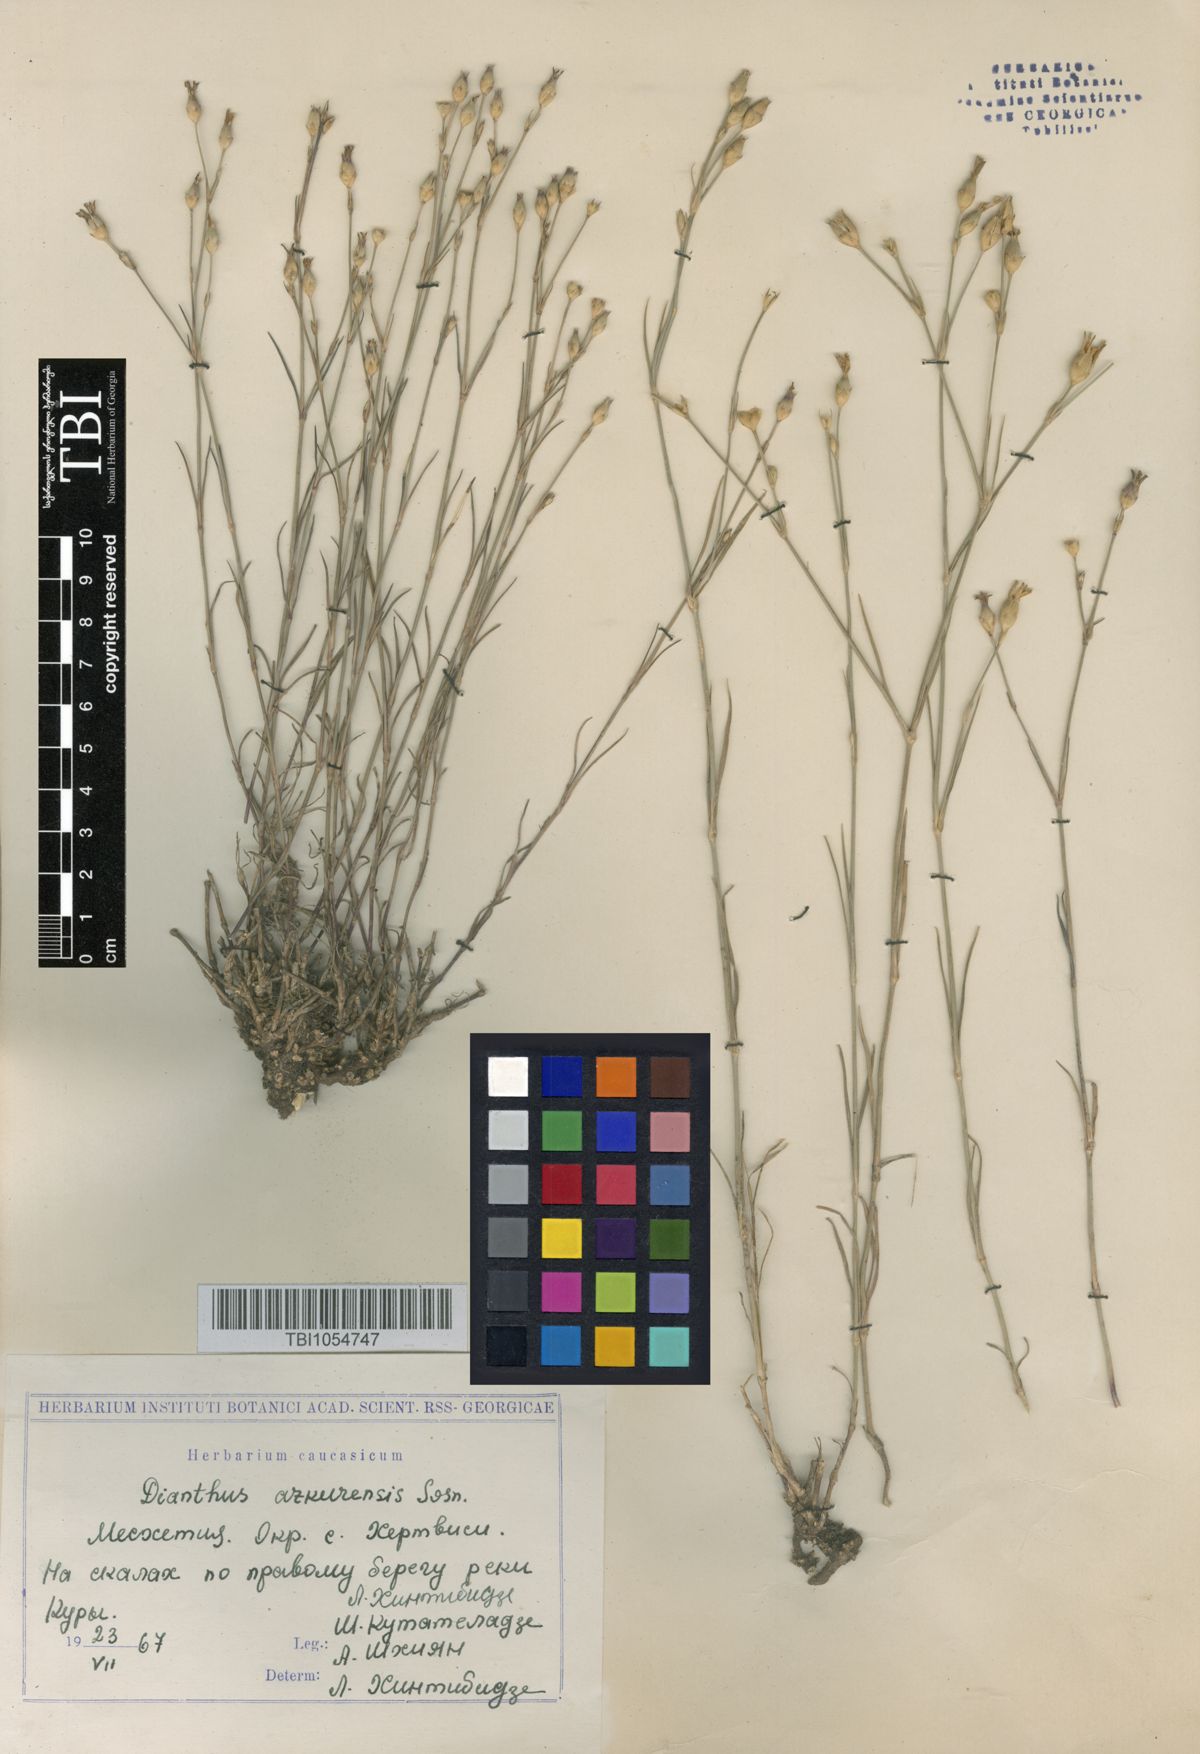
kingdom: Plantae
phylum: Tracheophyta
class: Magnoliopsida
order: Caryophyllales
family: Caryophyllaceae
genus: Dianthus
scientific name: Dianthus
